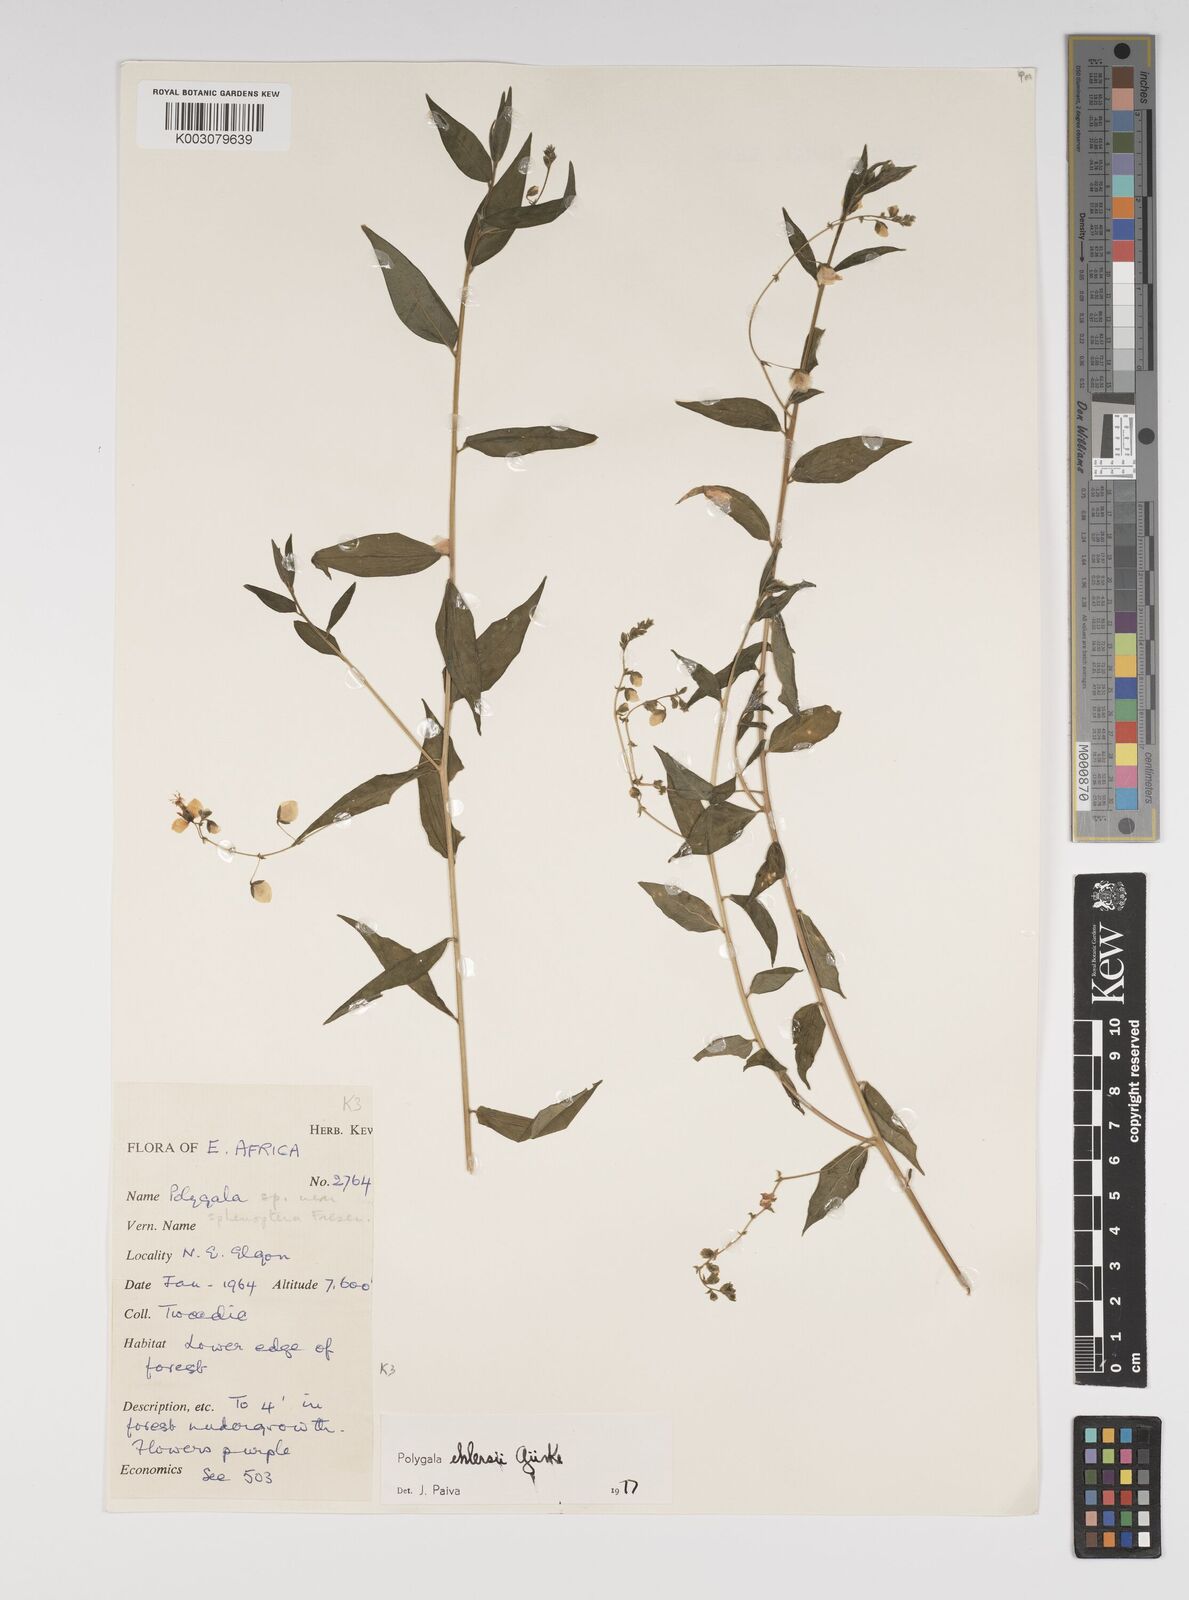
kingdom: Plantae
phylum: Tracheophyta
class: Magnoliopsida
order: Fabales
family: Polygalaceae
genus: Polygala
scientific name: Polygala ehlersii
